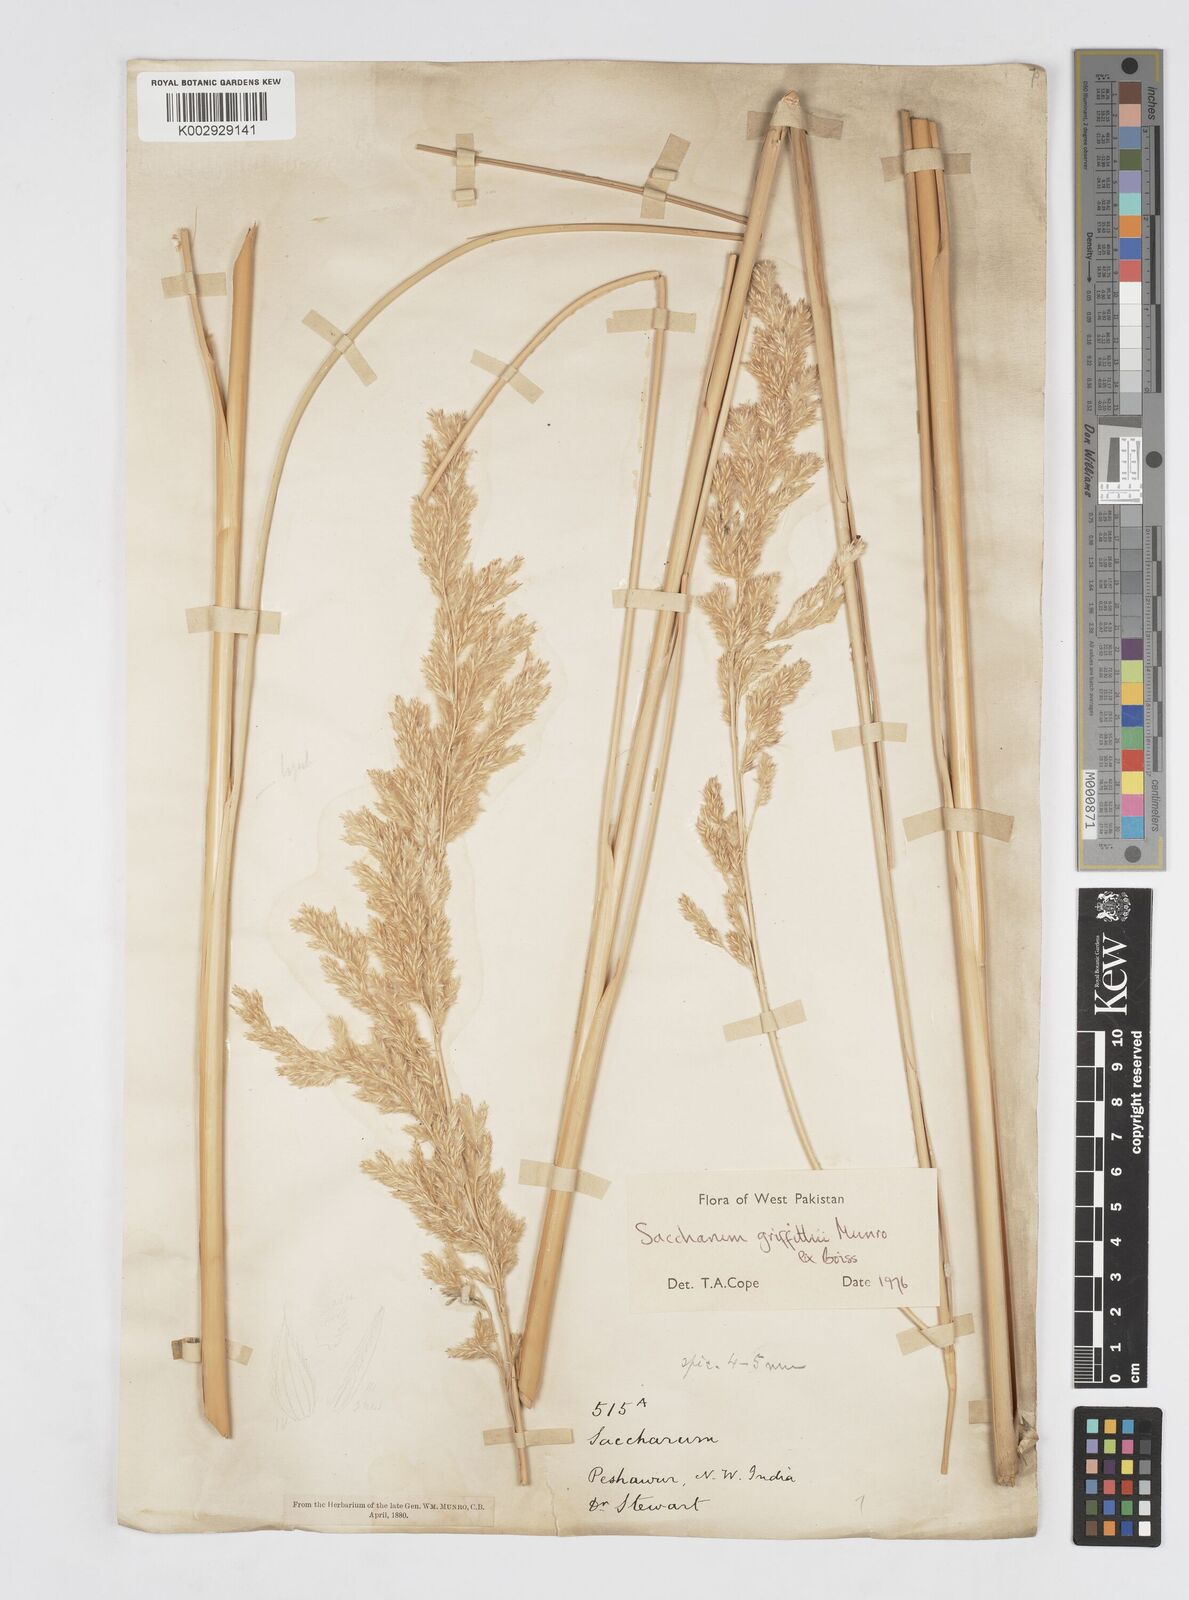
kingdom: Plantae
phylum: Tracheophyta
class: Liliopsida
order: Poales
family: Poaceae
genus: Saccharum
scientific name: Saccharum griffithii
